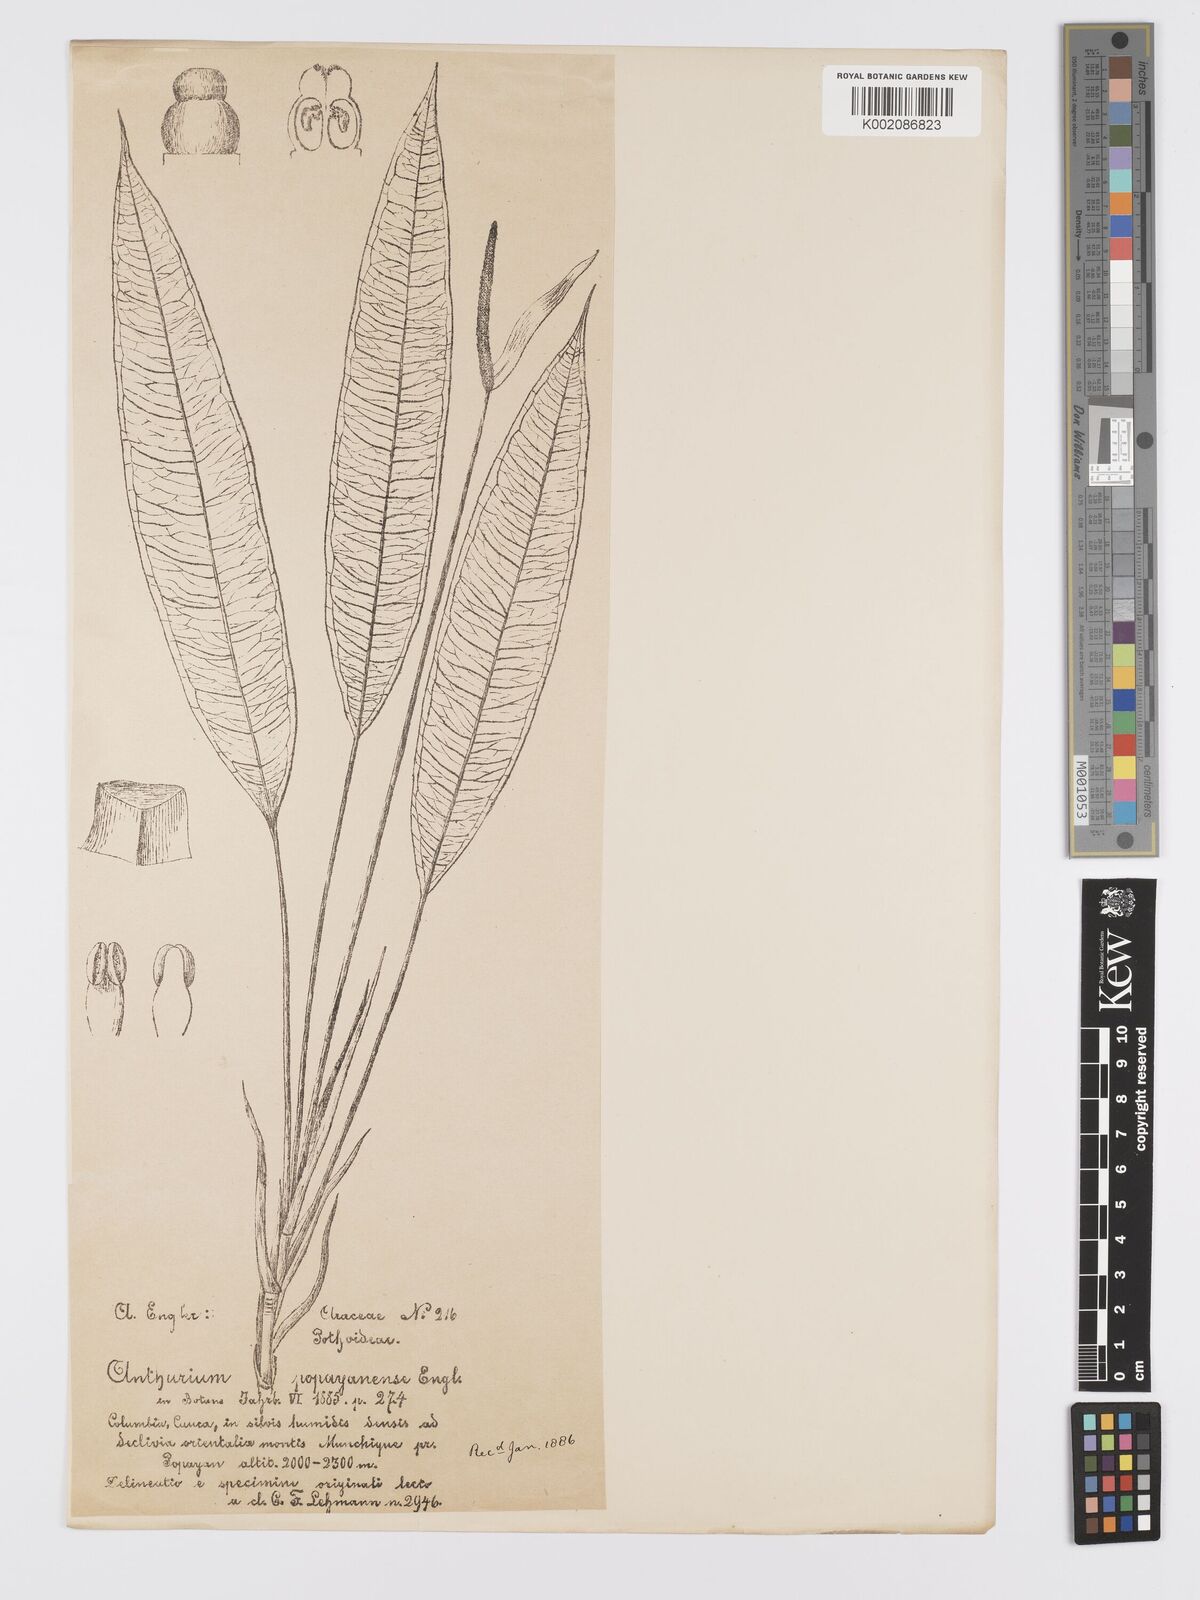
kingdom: Plantae
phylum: Tracheophyta
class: Liliopsida
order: Alismatales
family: Araceae
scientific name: Araceae
